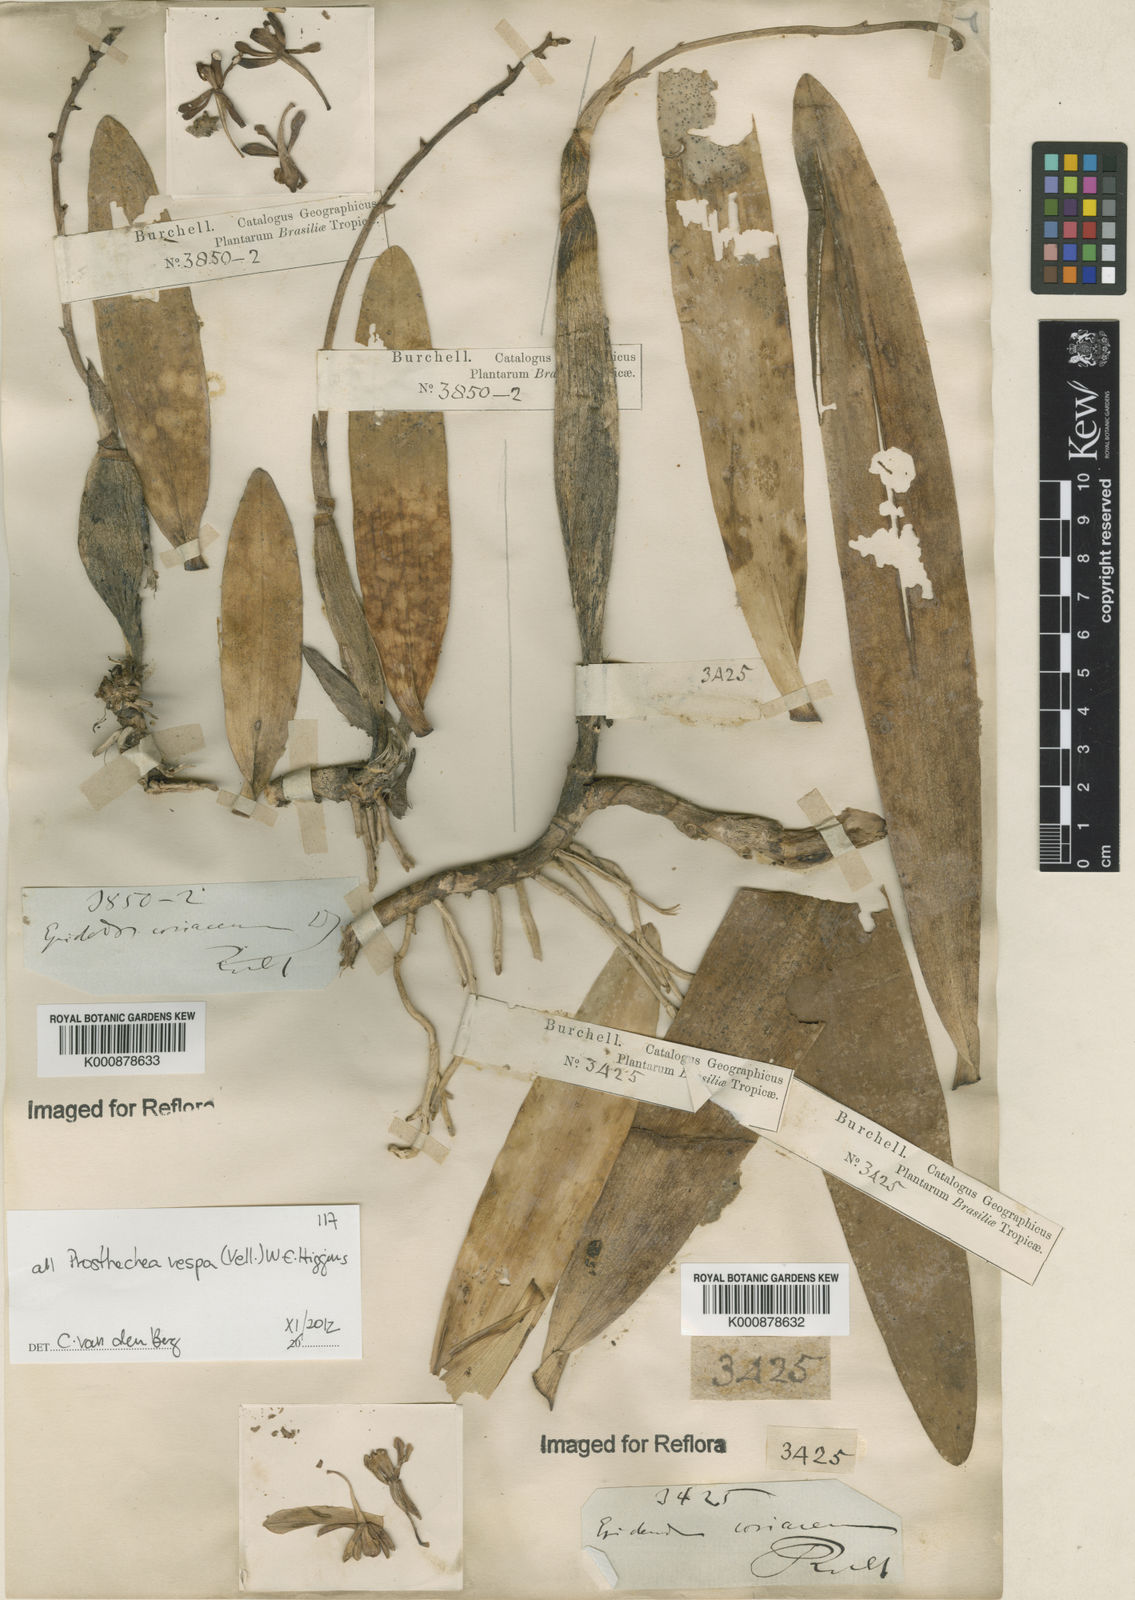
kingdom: Plantae
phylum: Tracheophyta
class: Liliopsida
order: Asparagales
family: Orchidaceae
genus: Prosthechea
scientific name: Prosthechea vespa
